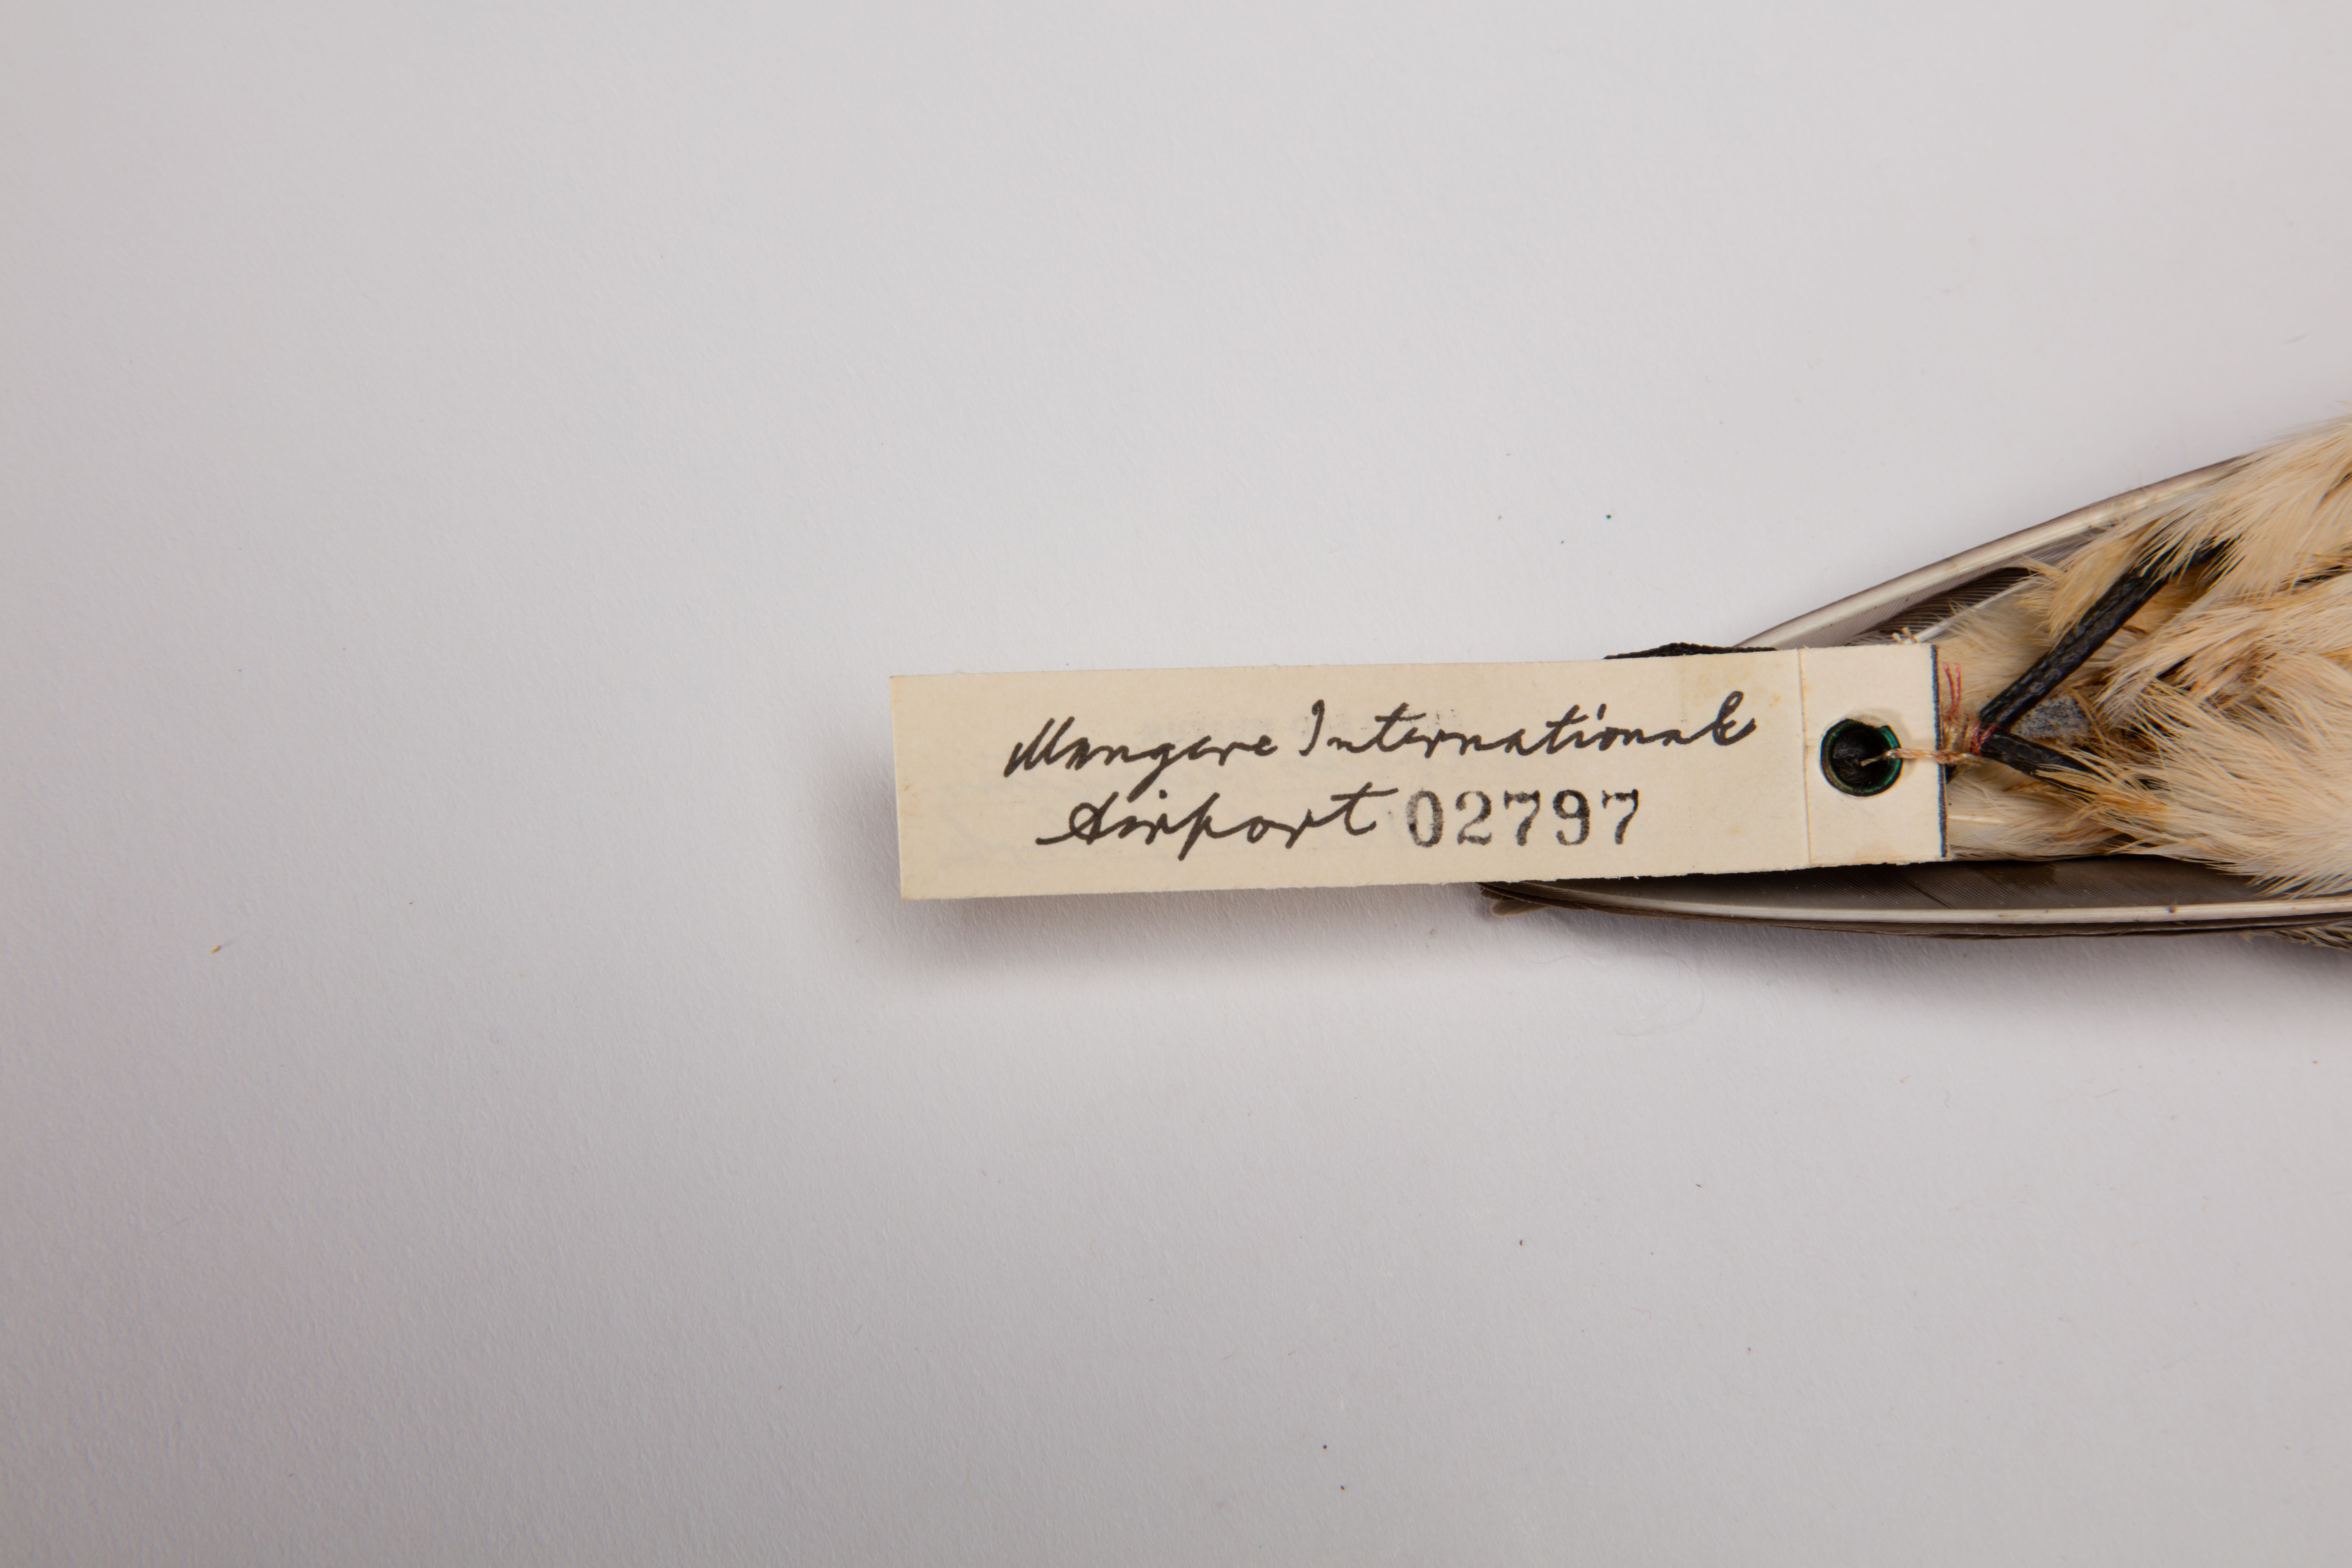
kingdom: Animalia
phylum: Chordata
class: Aves
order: Charadriiformes
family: Charadriidae
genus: Charadrius
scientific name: Charadrius bicinctus
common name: Double-banded plover
